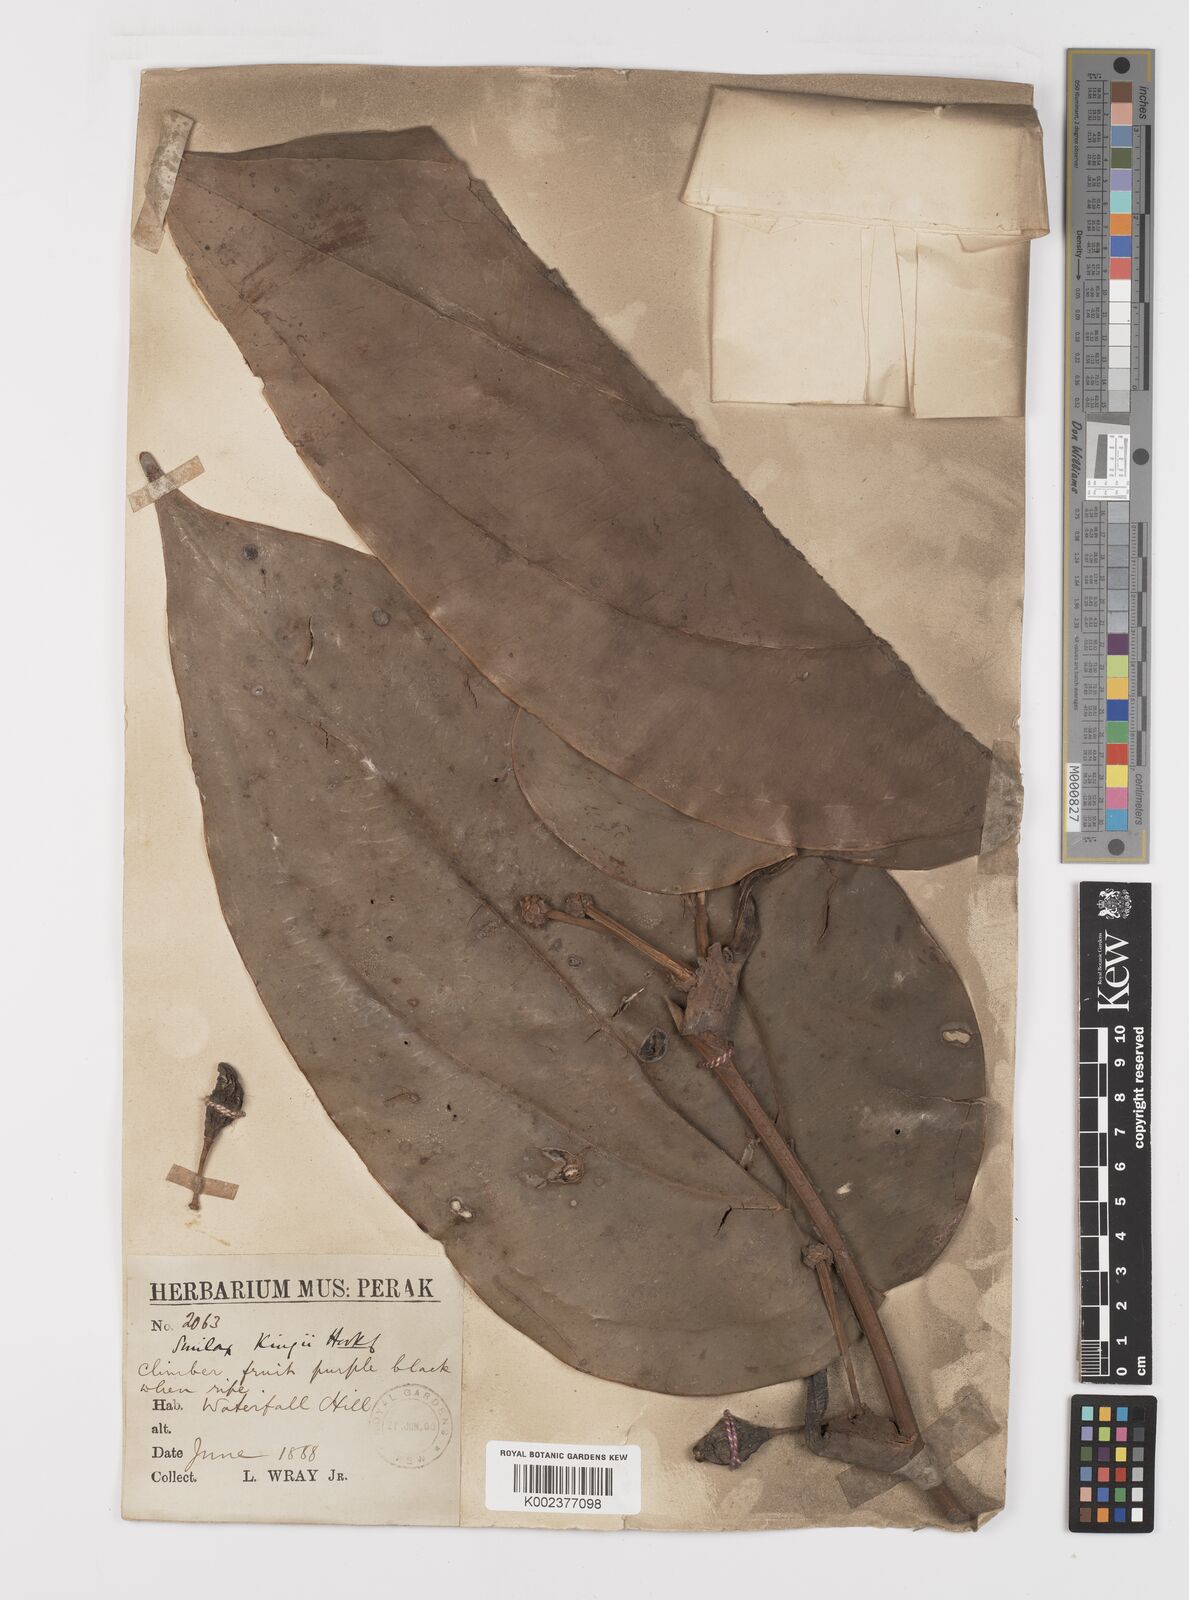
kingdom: Plantae
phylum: Tracheophyta
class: Liliopsida
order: Liliales
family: Smilacaceae
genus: Smilax
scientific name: Smilax kingii
